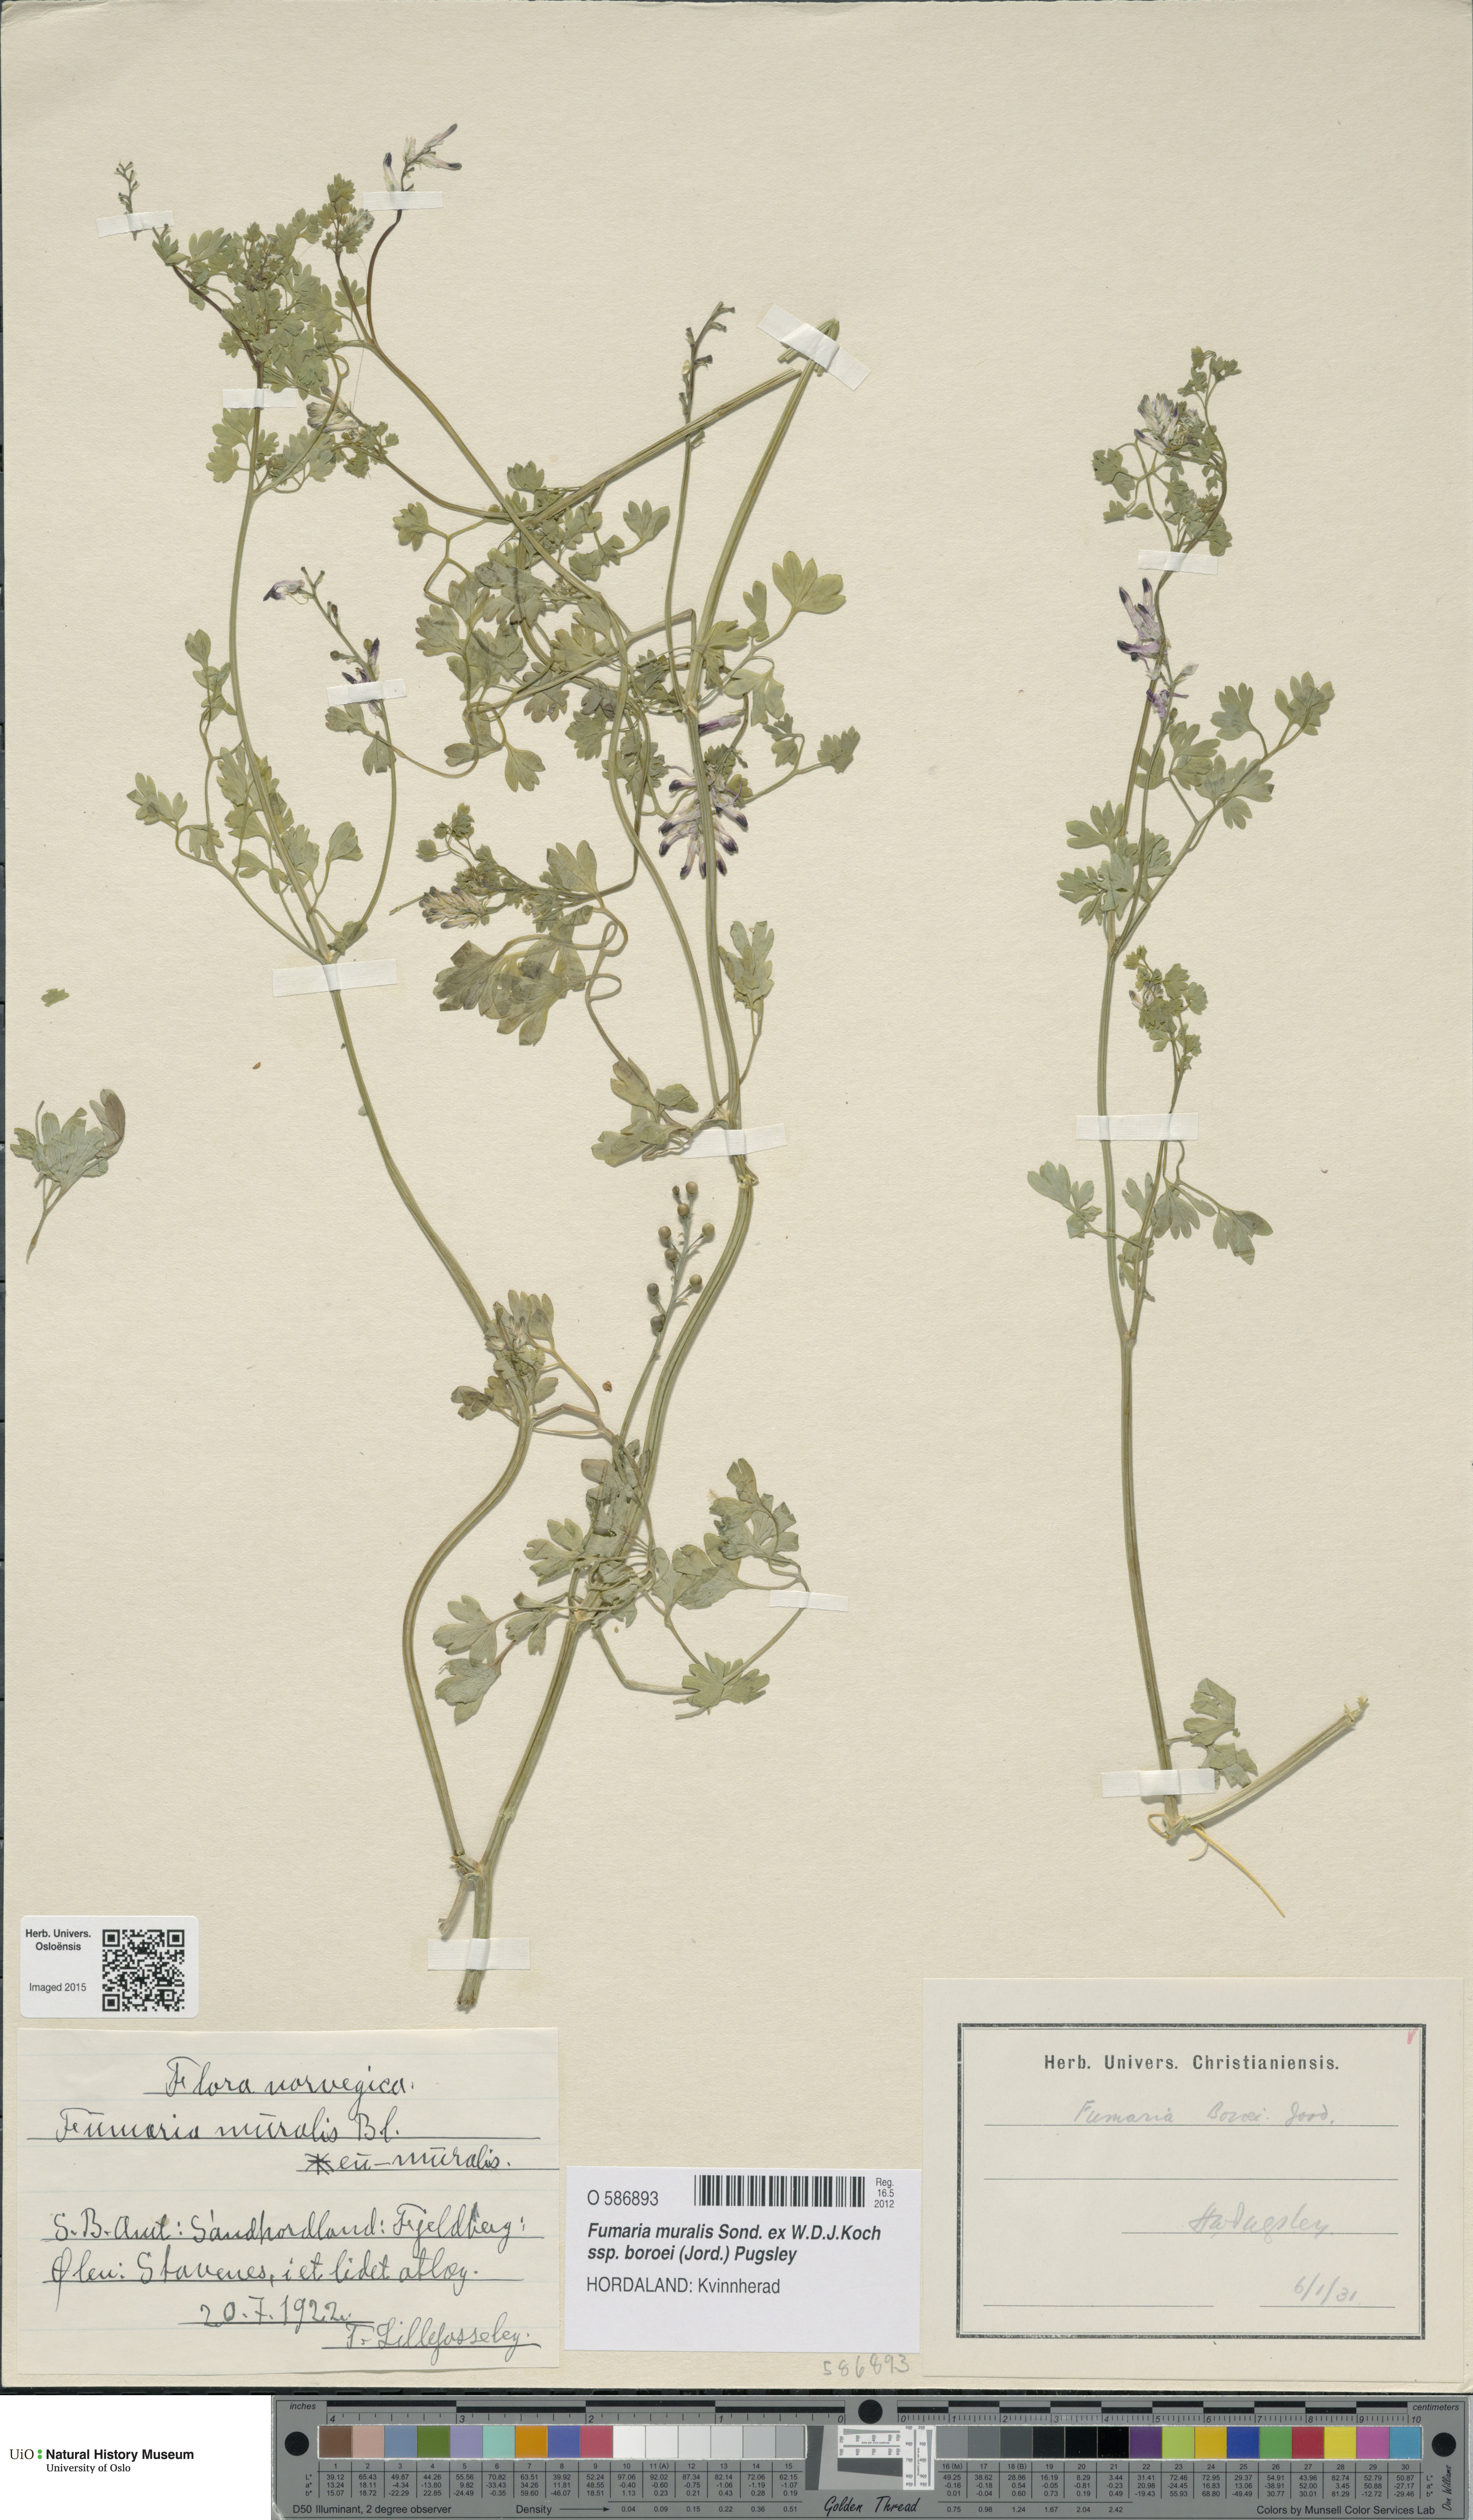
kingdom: Plantae
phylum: Tracheophyta
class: Magnoliopsida
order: Ranunculales
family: Papaveraceae
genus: Fumaria
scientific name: Fumaria muralis
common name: Common ramping-fumitory
